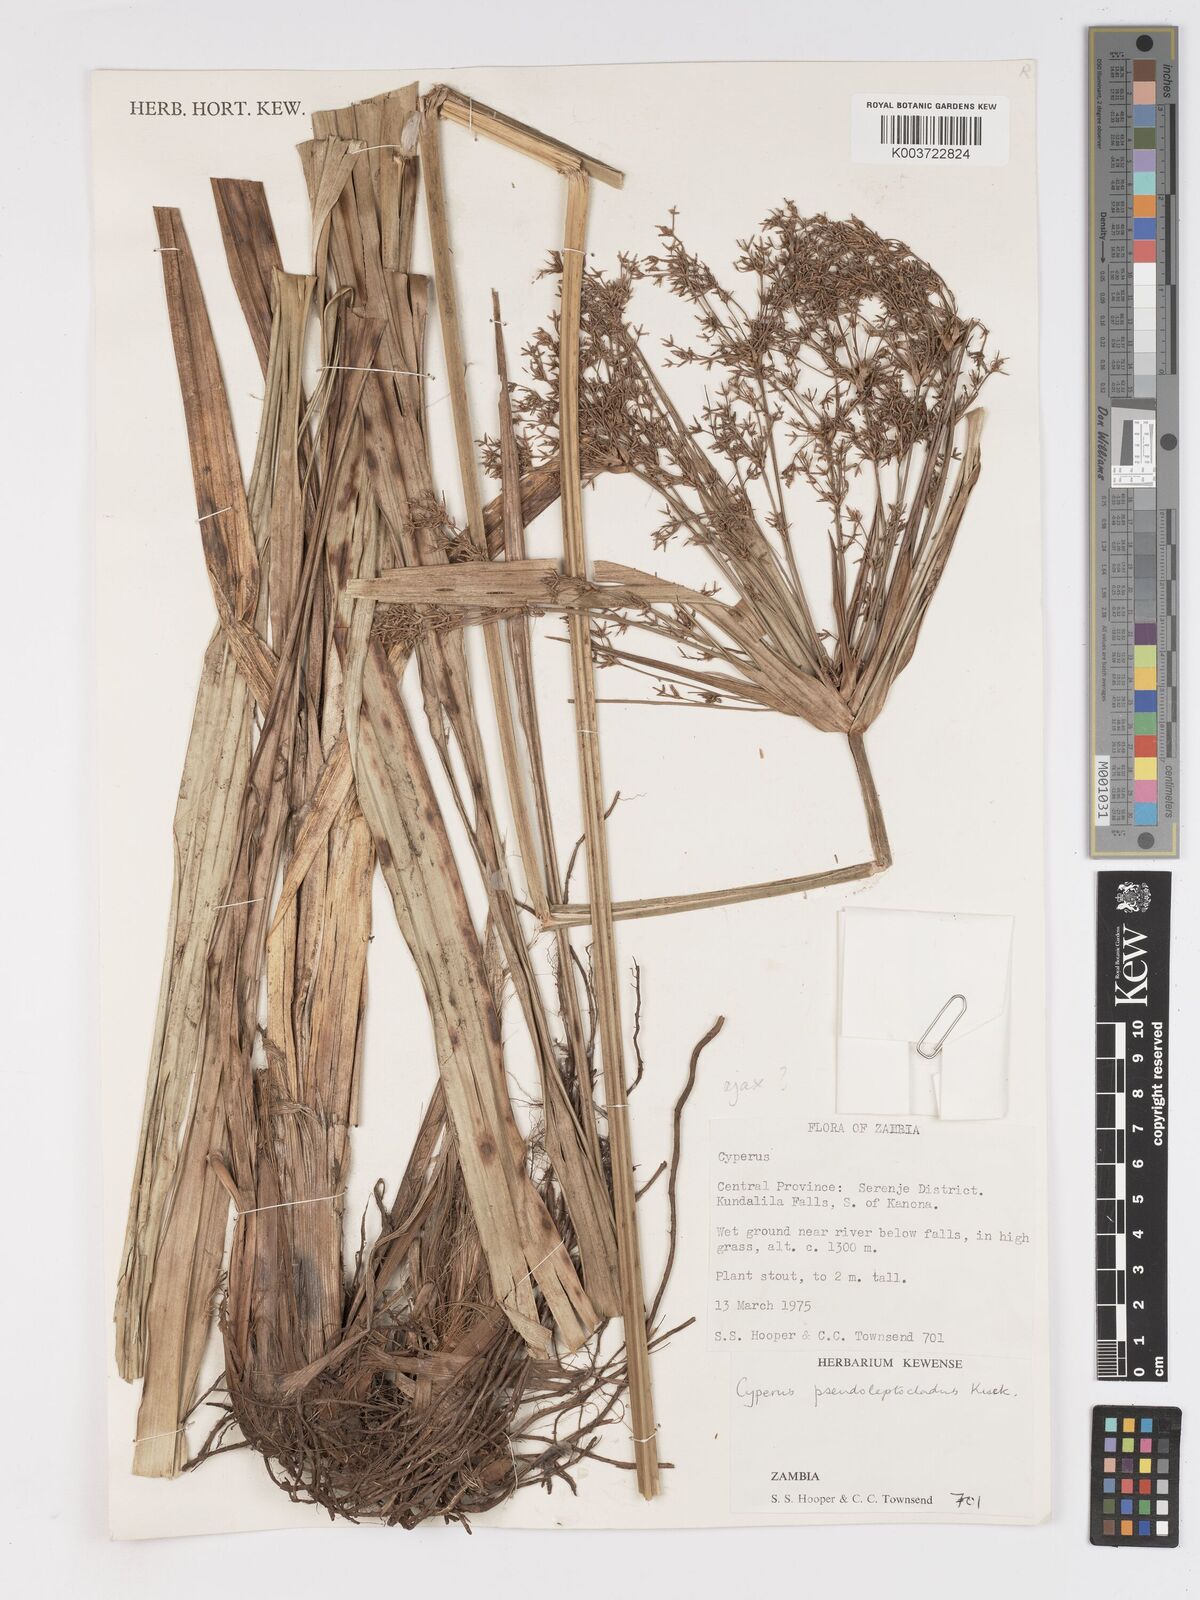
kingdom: Plantae
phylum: Tracheophyta
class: Liliopsida
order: Poales
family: Cyperaceae
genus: Cyperus
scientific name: Cyperus glaucophyllus
